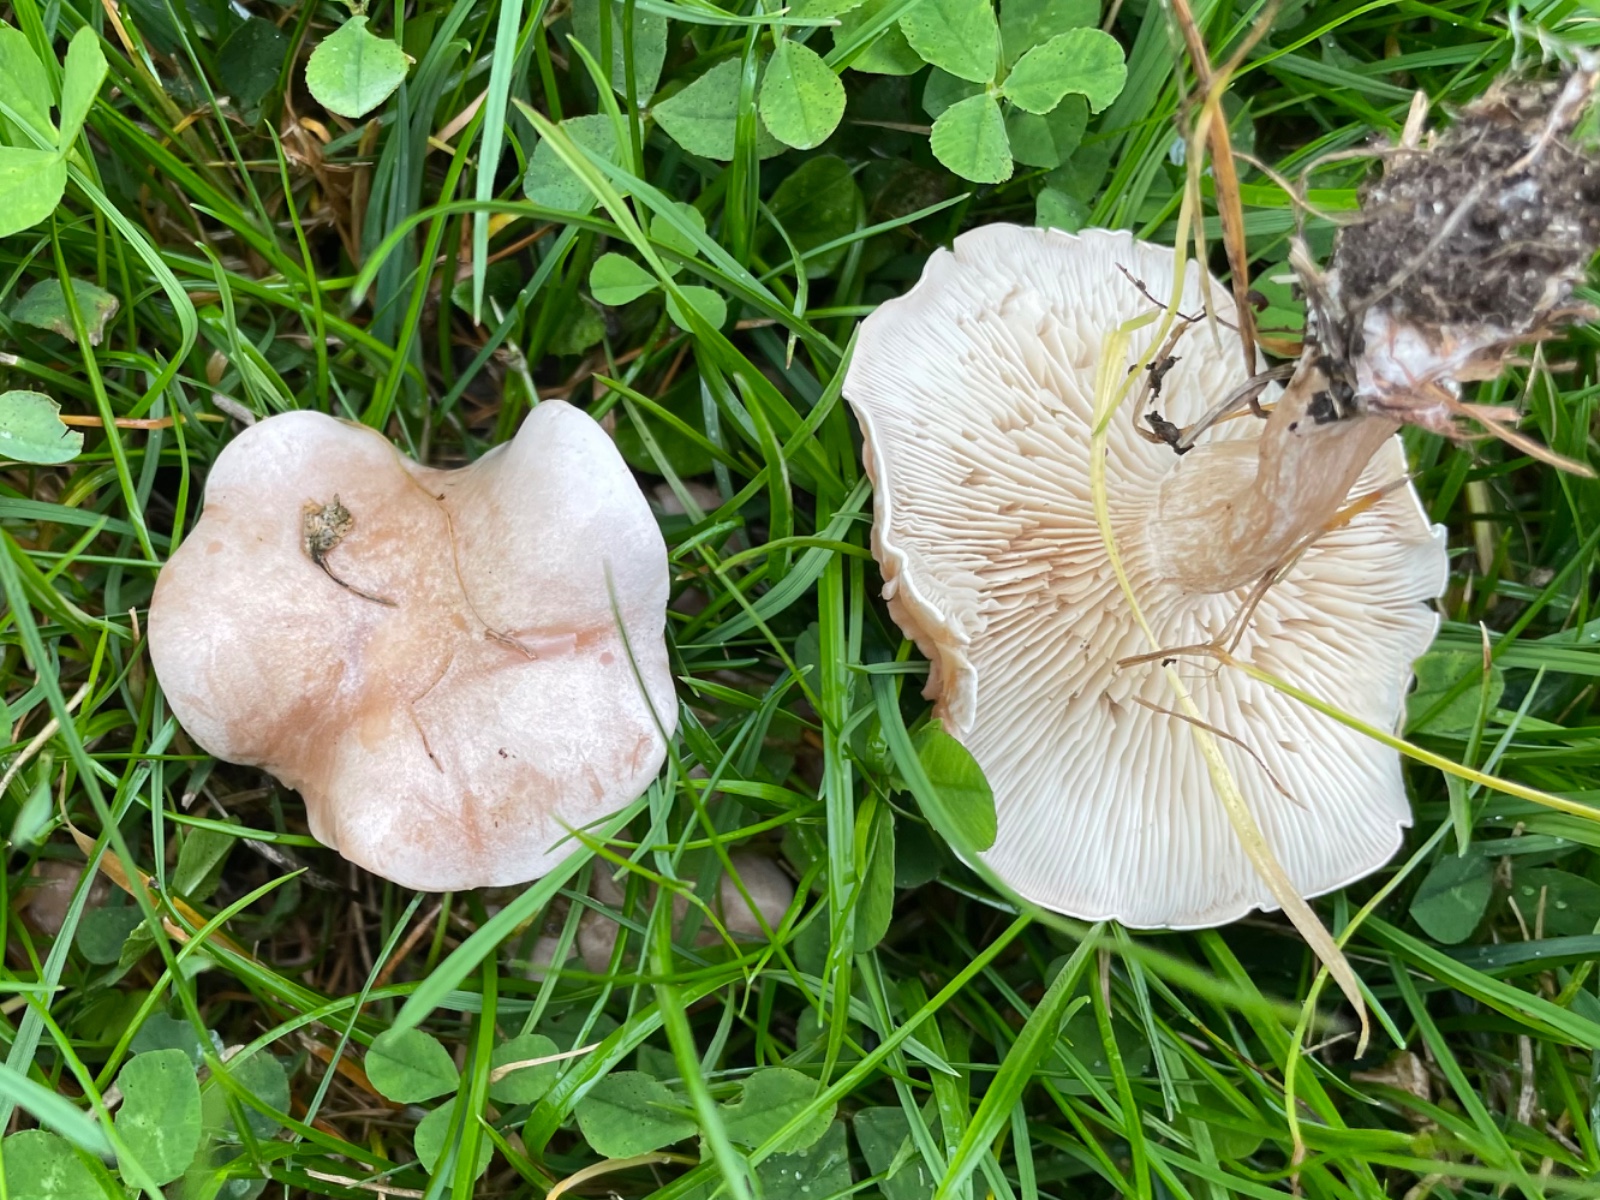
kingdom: Fungi
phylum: Basidiomycota
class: Agaricomycetes
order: Agaricales
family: Tricholomataceae
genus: Clitocybe
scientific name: Clitocybe rivulosa
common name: eng-tragthat
